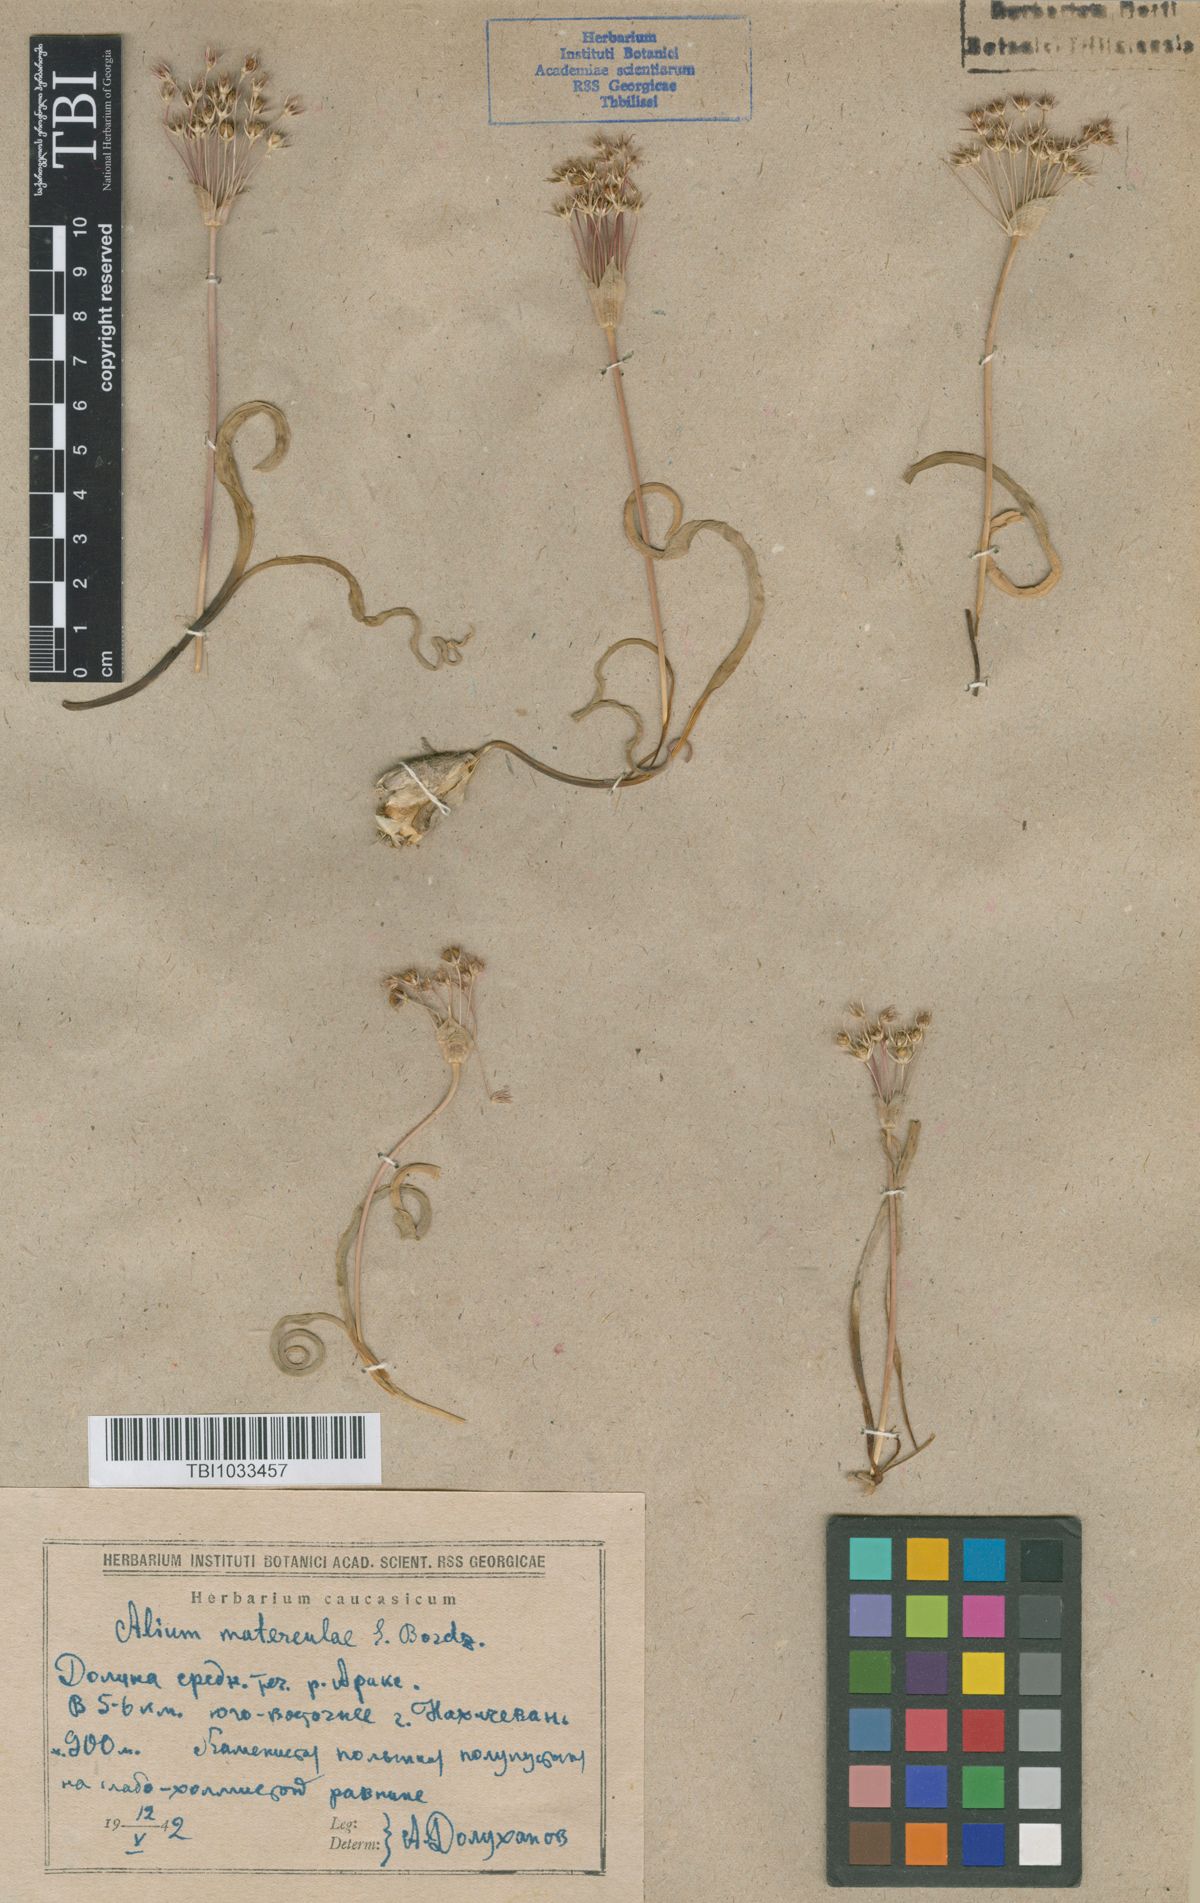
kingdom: Plantae
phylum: Tracheophyta
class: Liliopsida
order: Asparagales
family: Amaryllidaceae
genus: Allium
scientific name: Allium materculae
